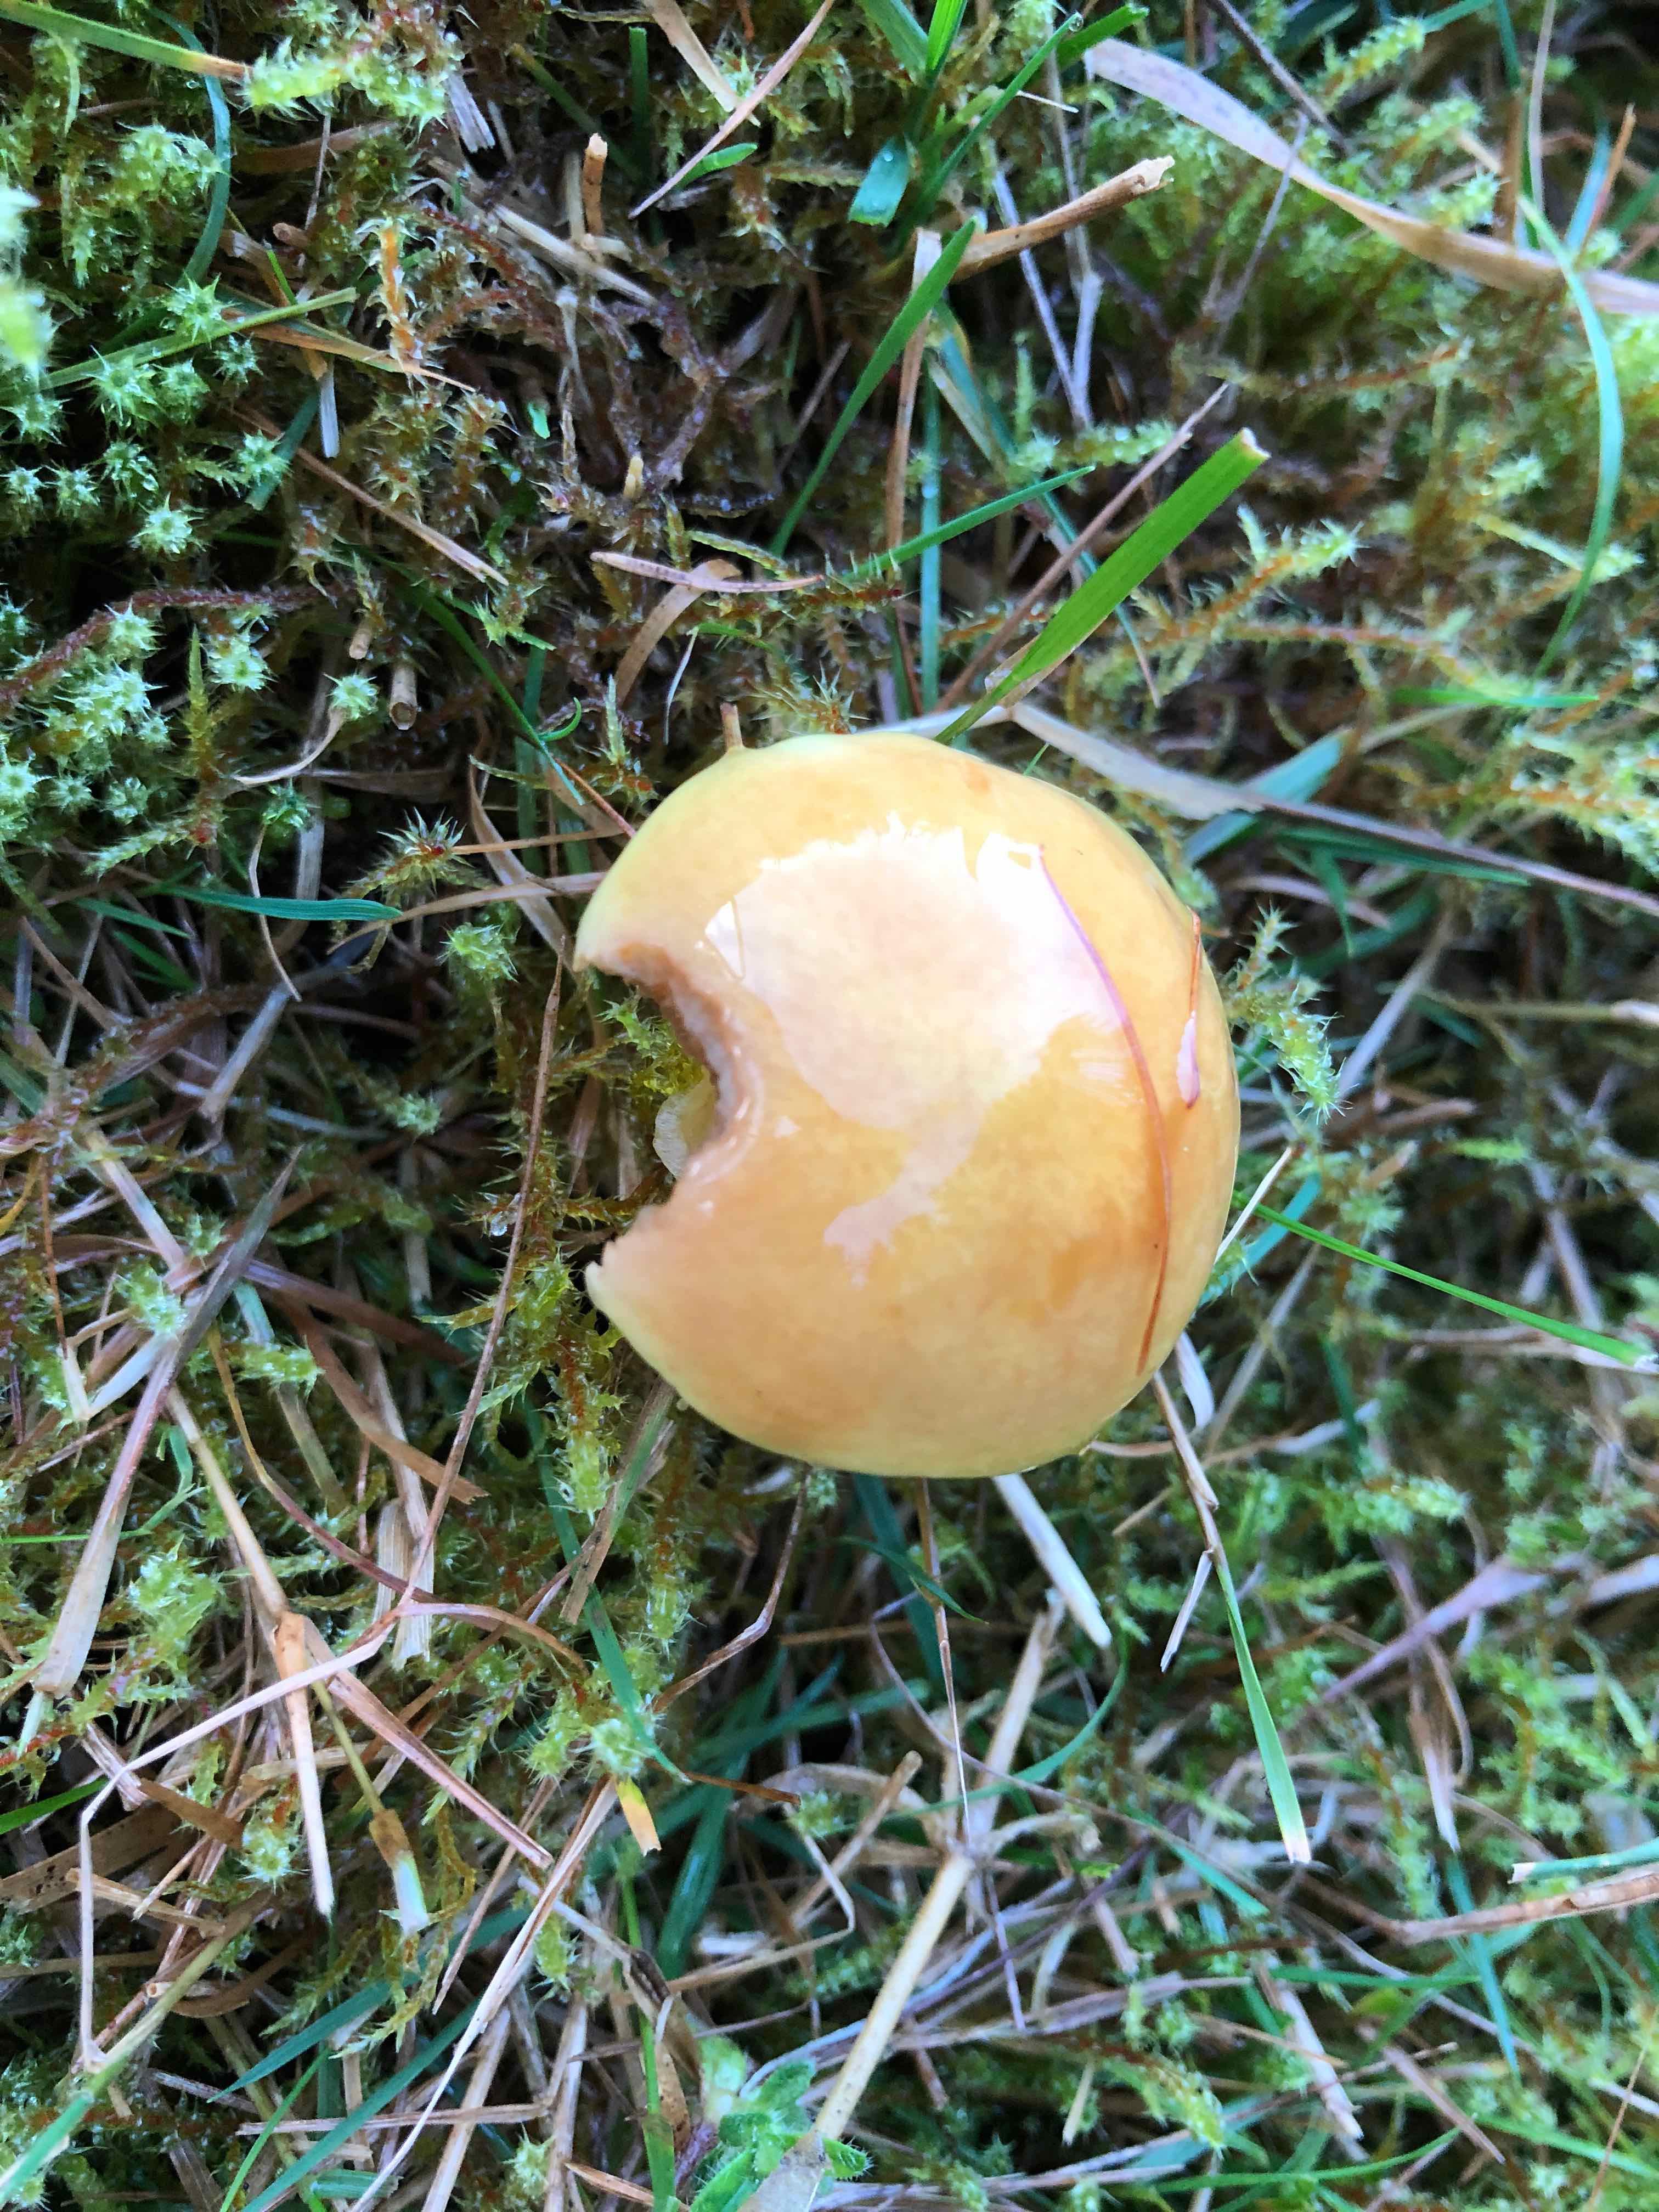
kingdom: Fungi
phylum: Basidiomycota
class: Agaricomycetes
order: Boletales
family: Suillaceae
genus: Suillus
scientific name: Suillus grevillei
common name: lærke-slimrørhat
